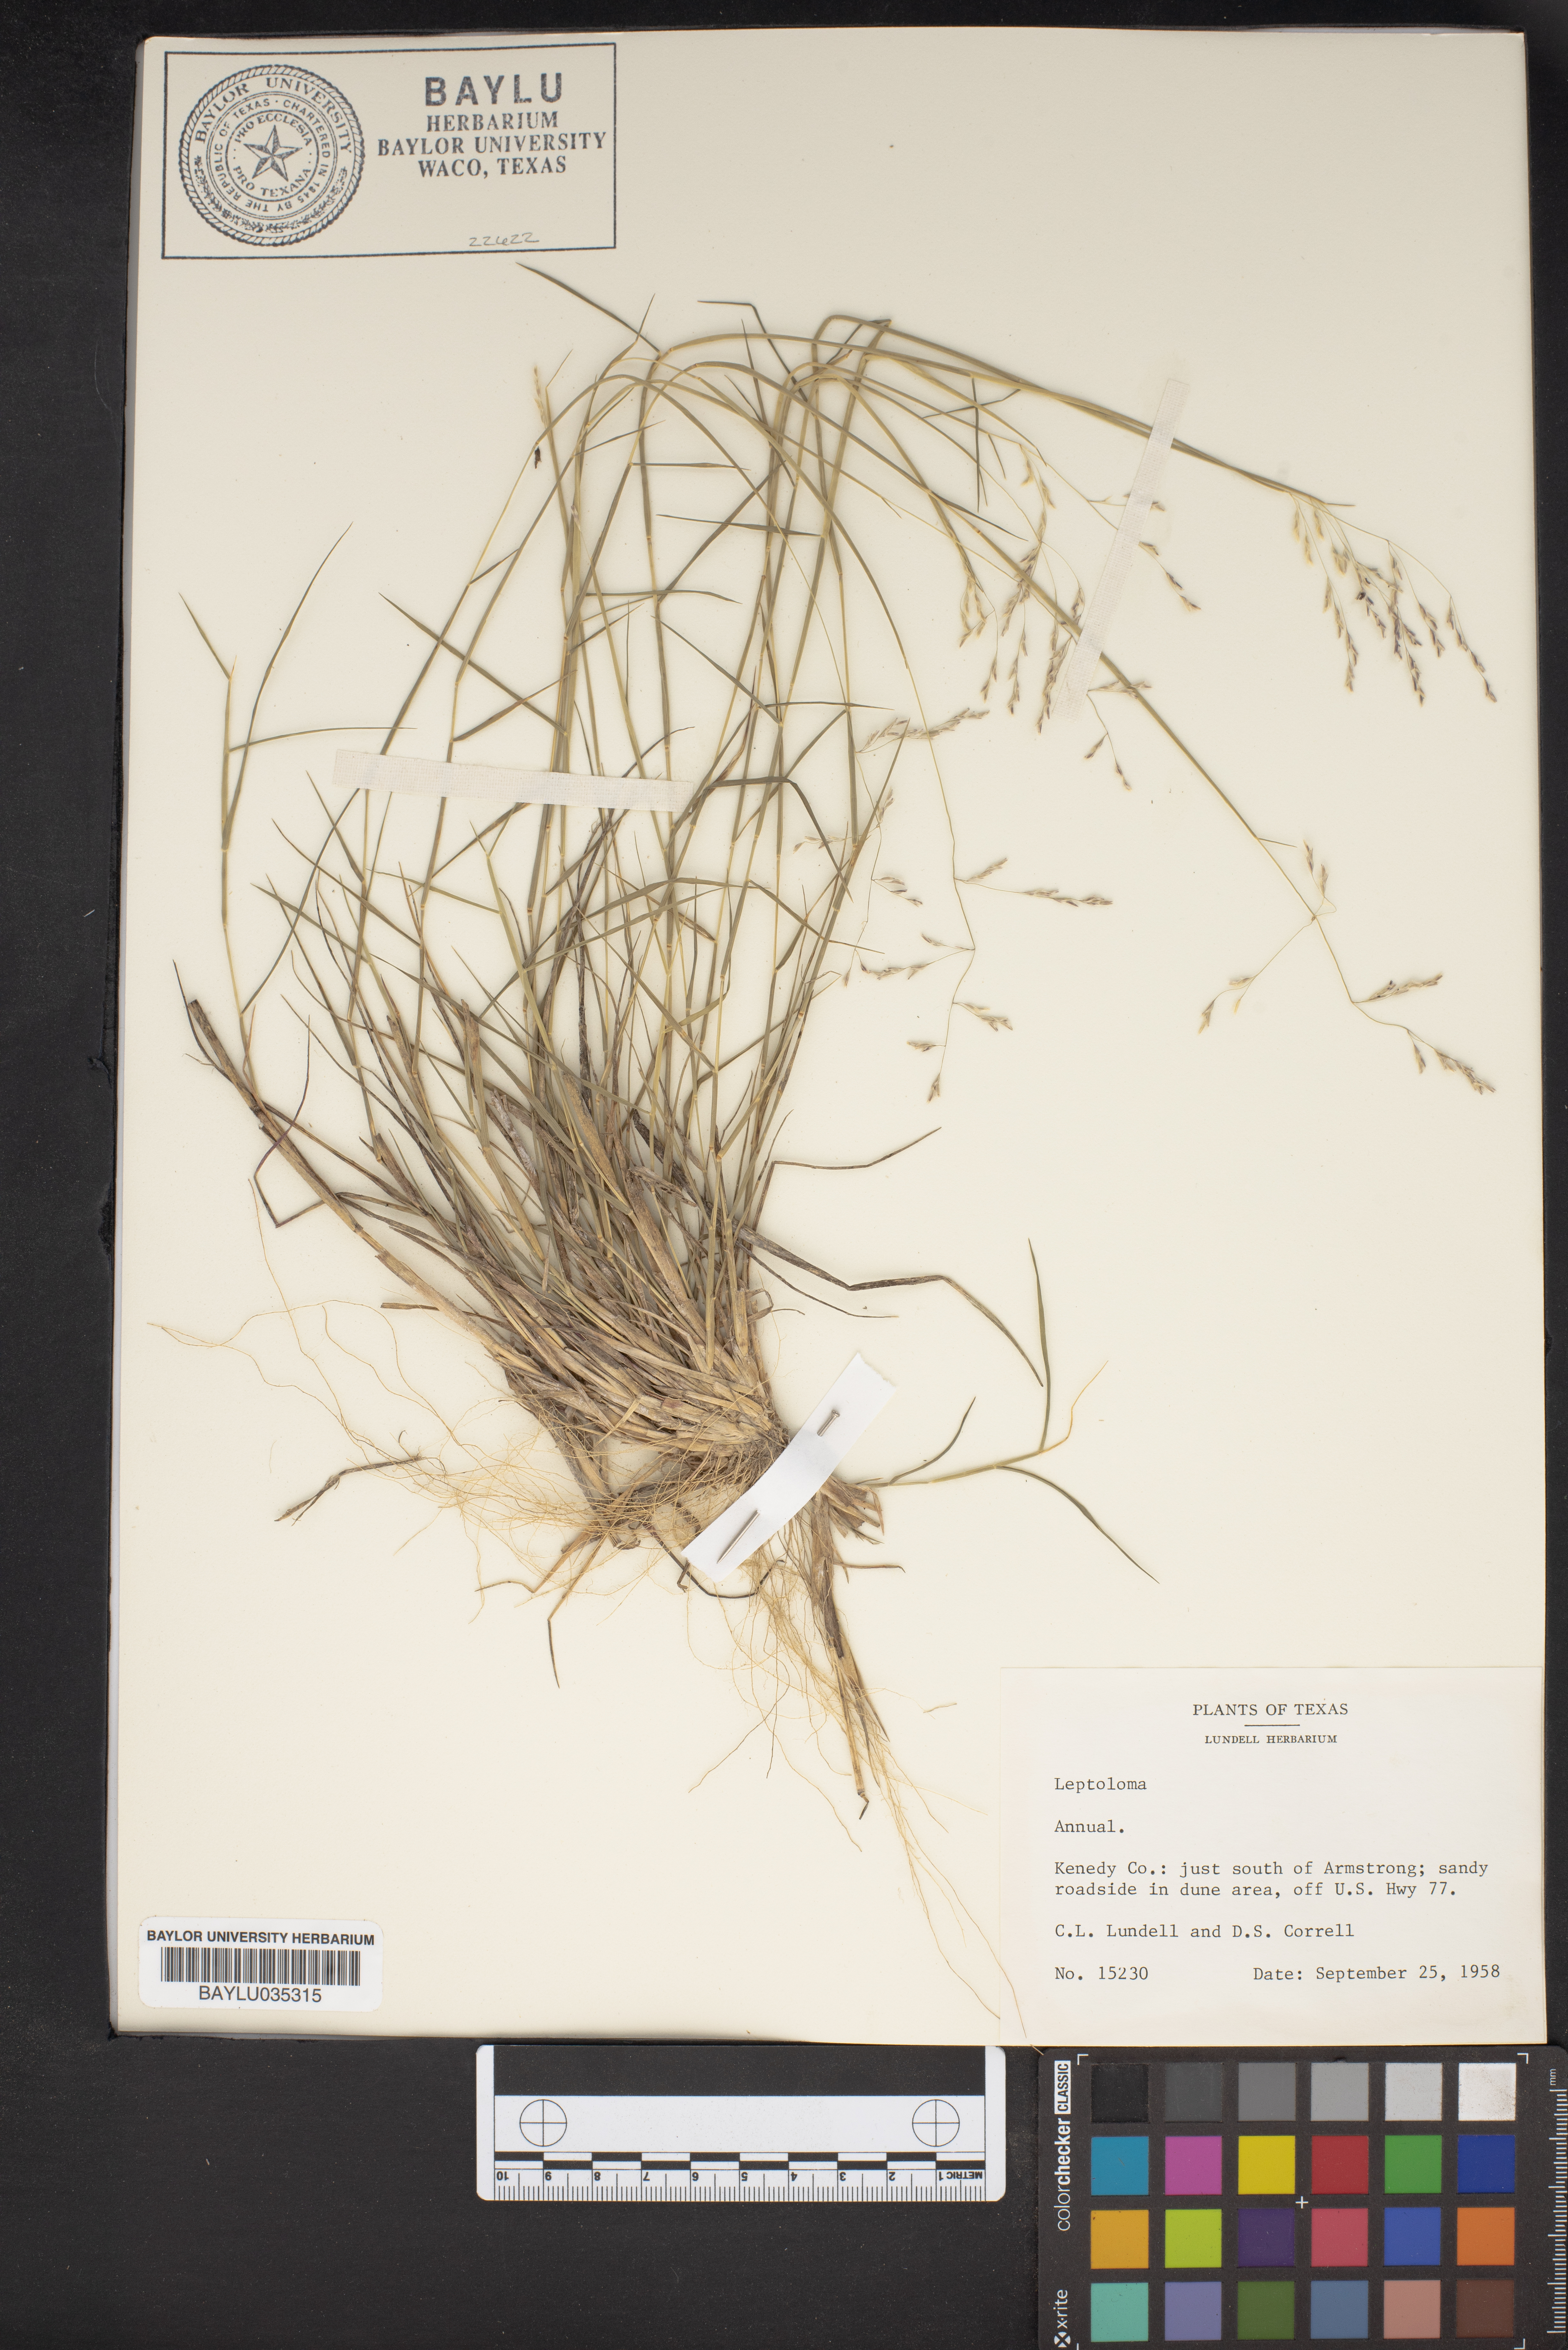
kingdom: Plantae
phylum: Tracheophyta
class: Liliopsida
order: Poales
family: Poaceae
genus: Digitaria
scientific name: Digitaria
